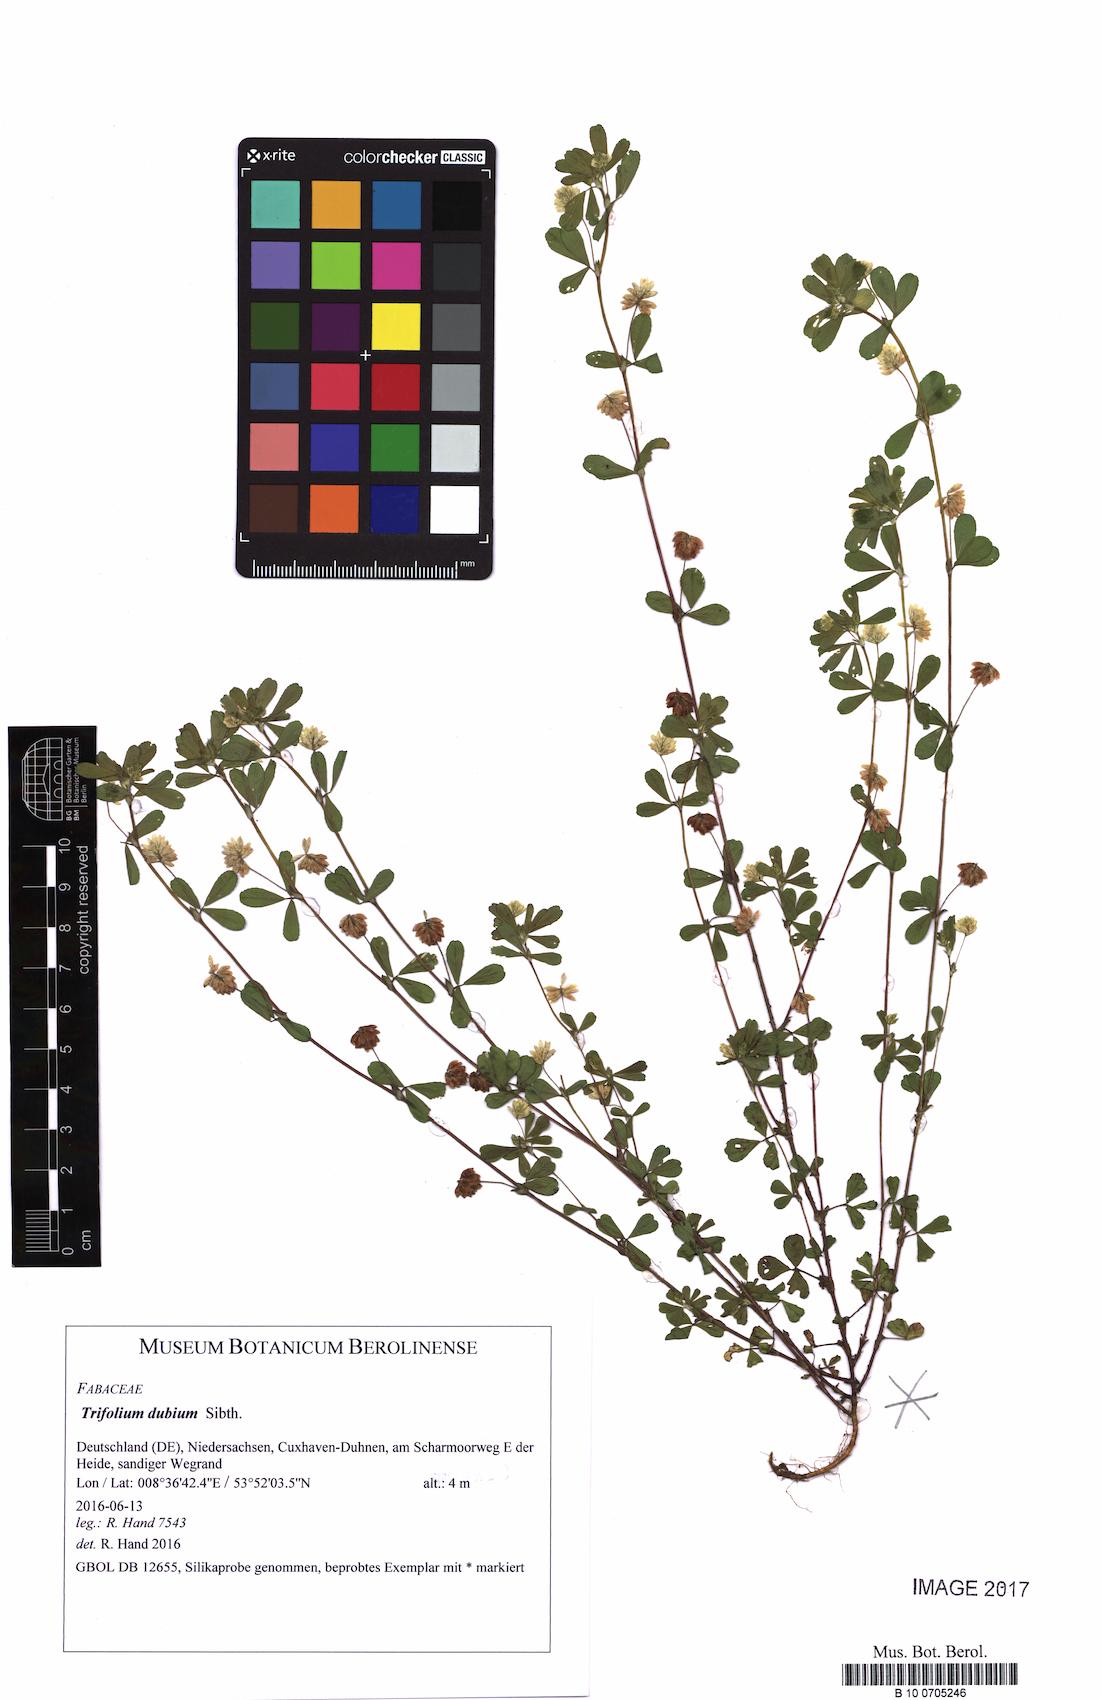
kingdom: Plantae
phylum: Tracheophyta
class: Magnoliopsida
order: Fabales
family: Fabaceae
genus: Trifolium
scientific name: Trifolium dubium
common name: Suckling clover
